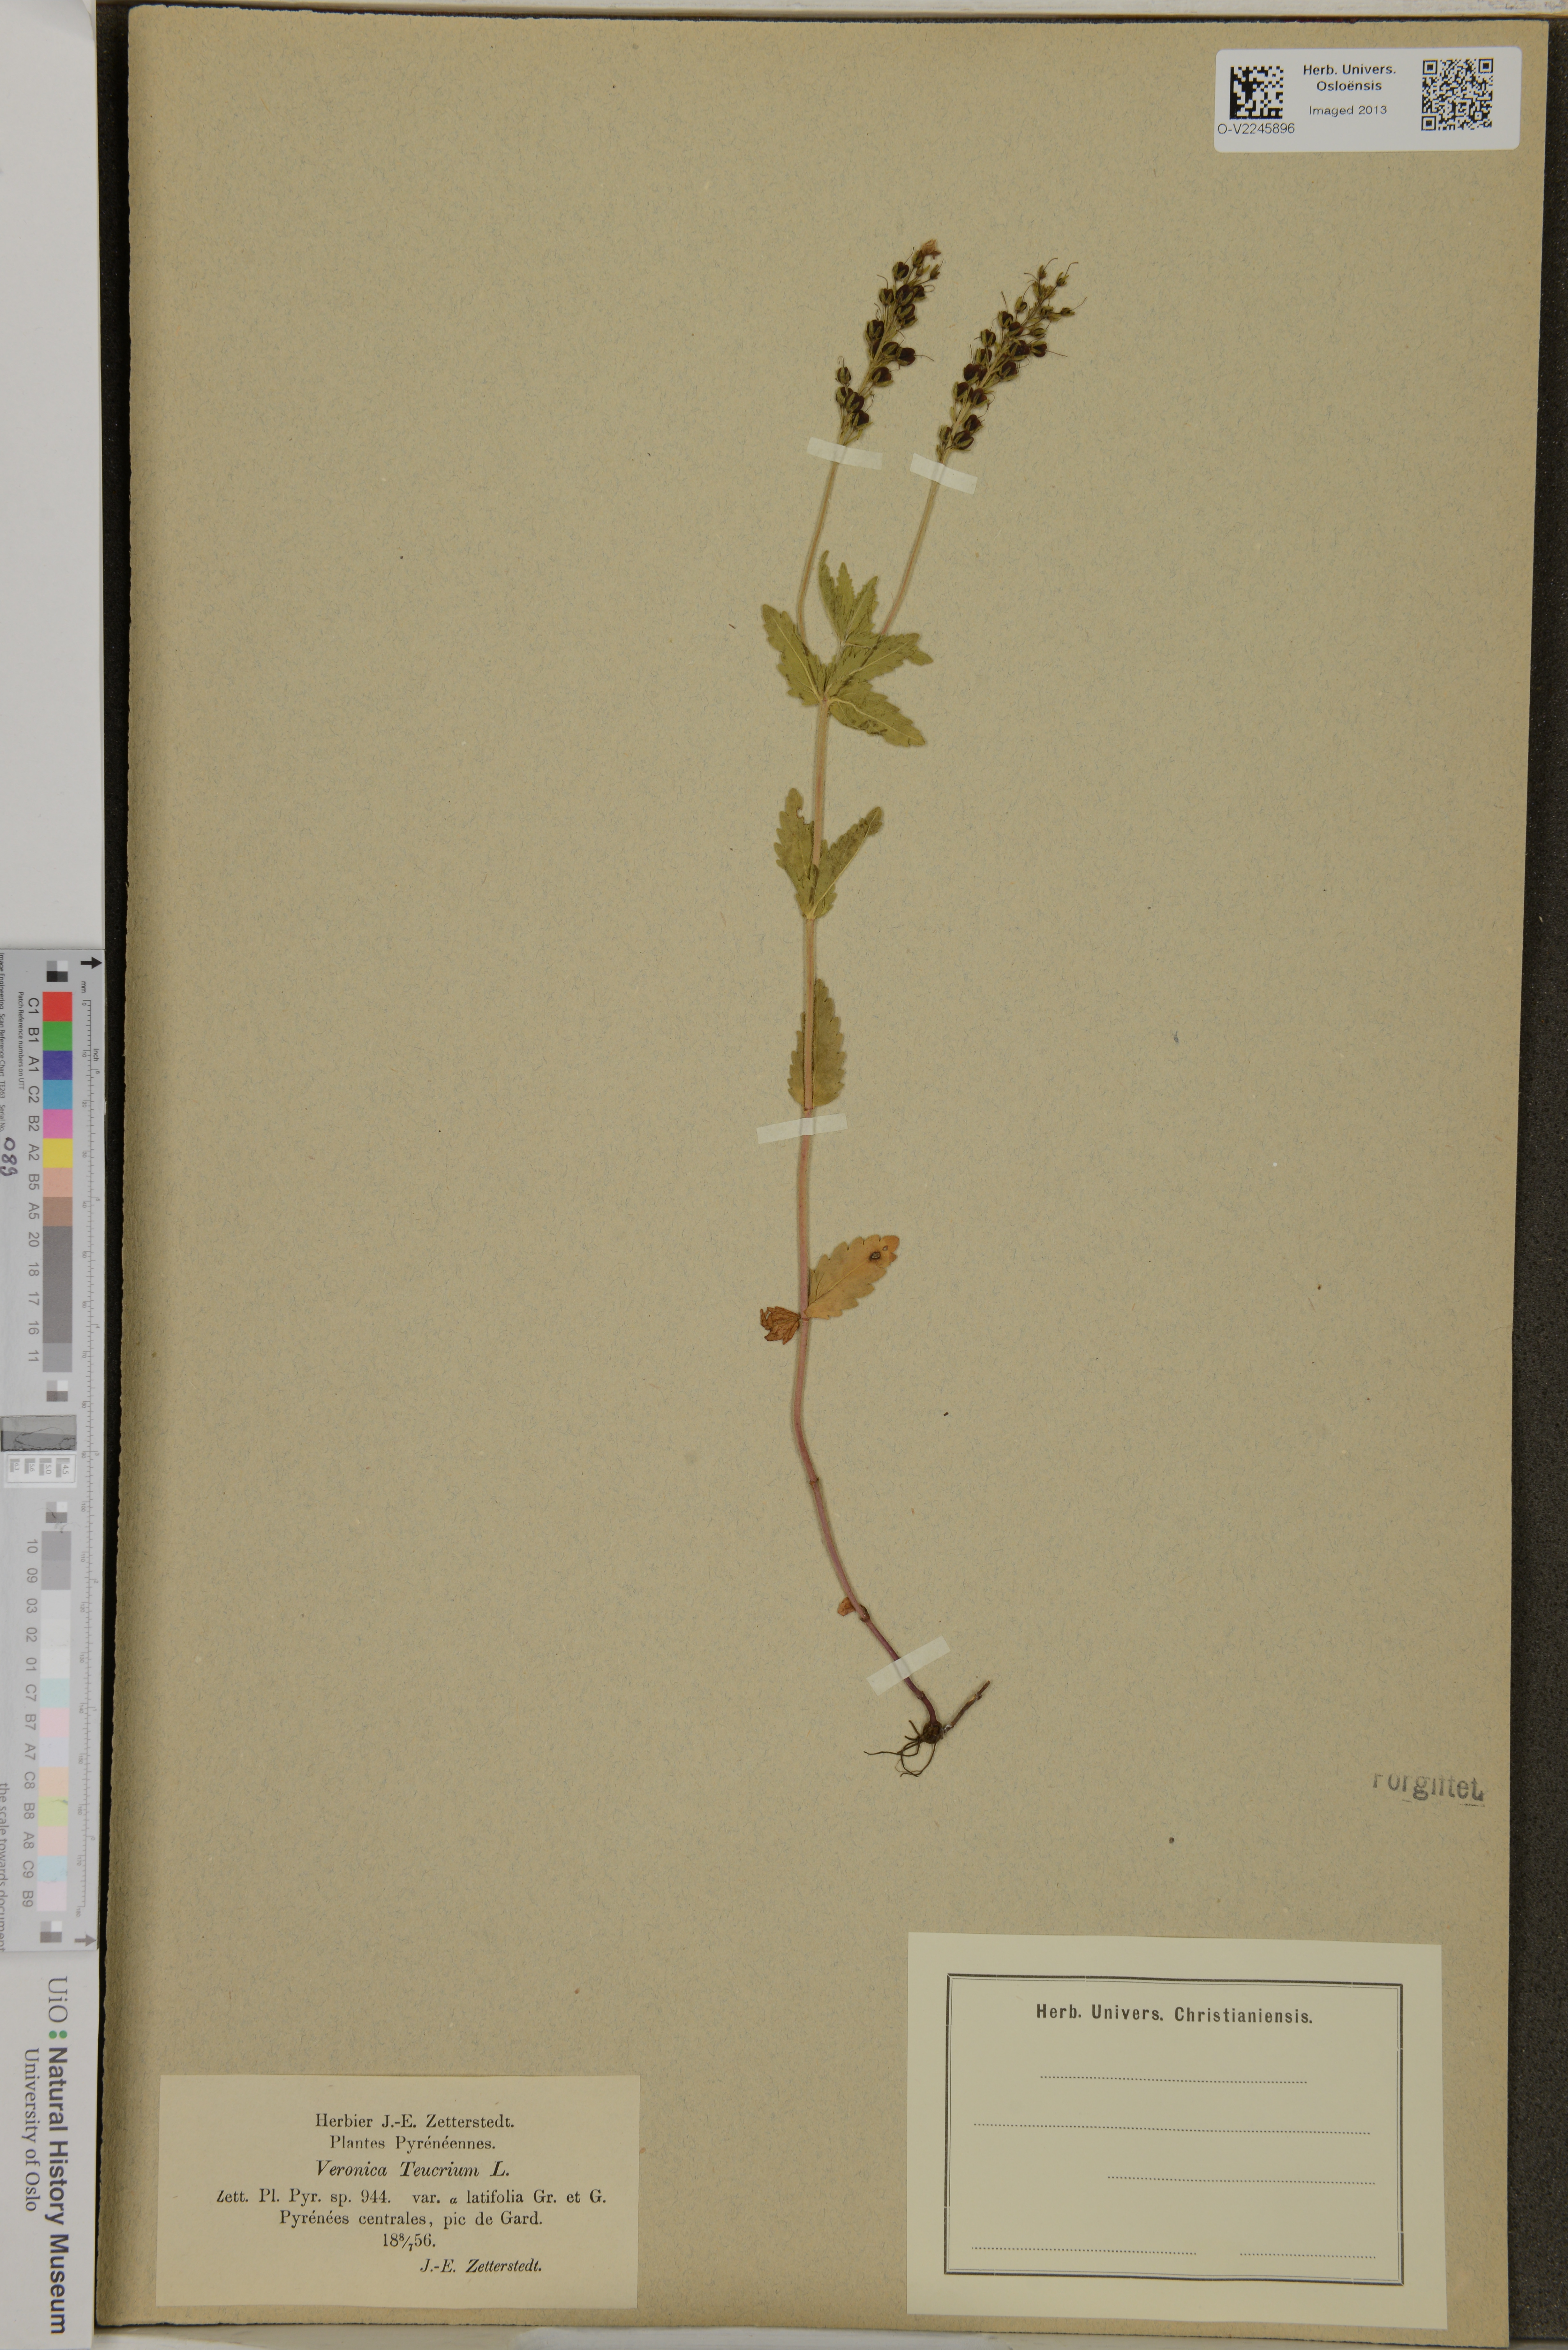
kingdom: Plantae
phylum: Tracheophyta
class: Magnoliopsida
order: Lamiales
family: Plantaginaceae
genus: Veronica
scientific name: Veronica teucrium
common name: Large speedwell
